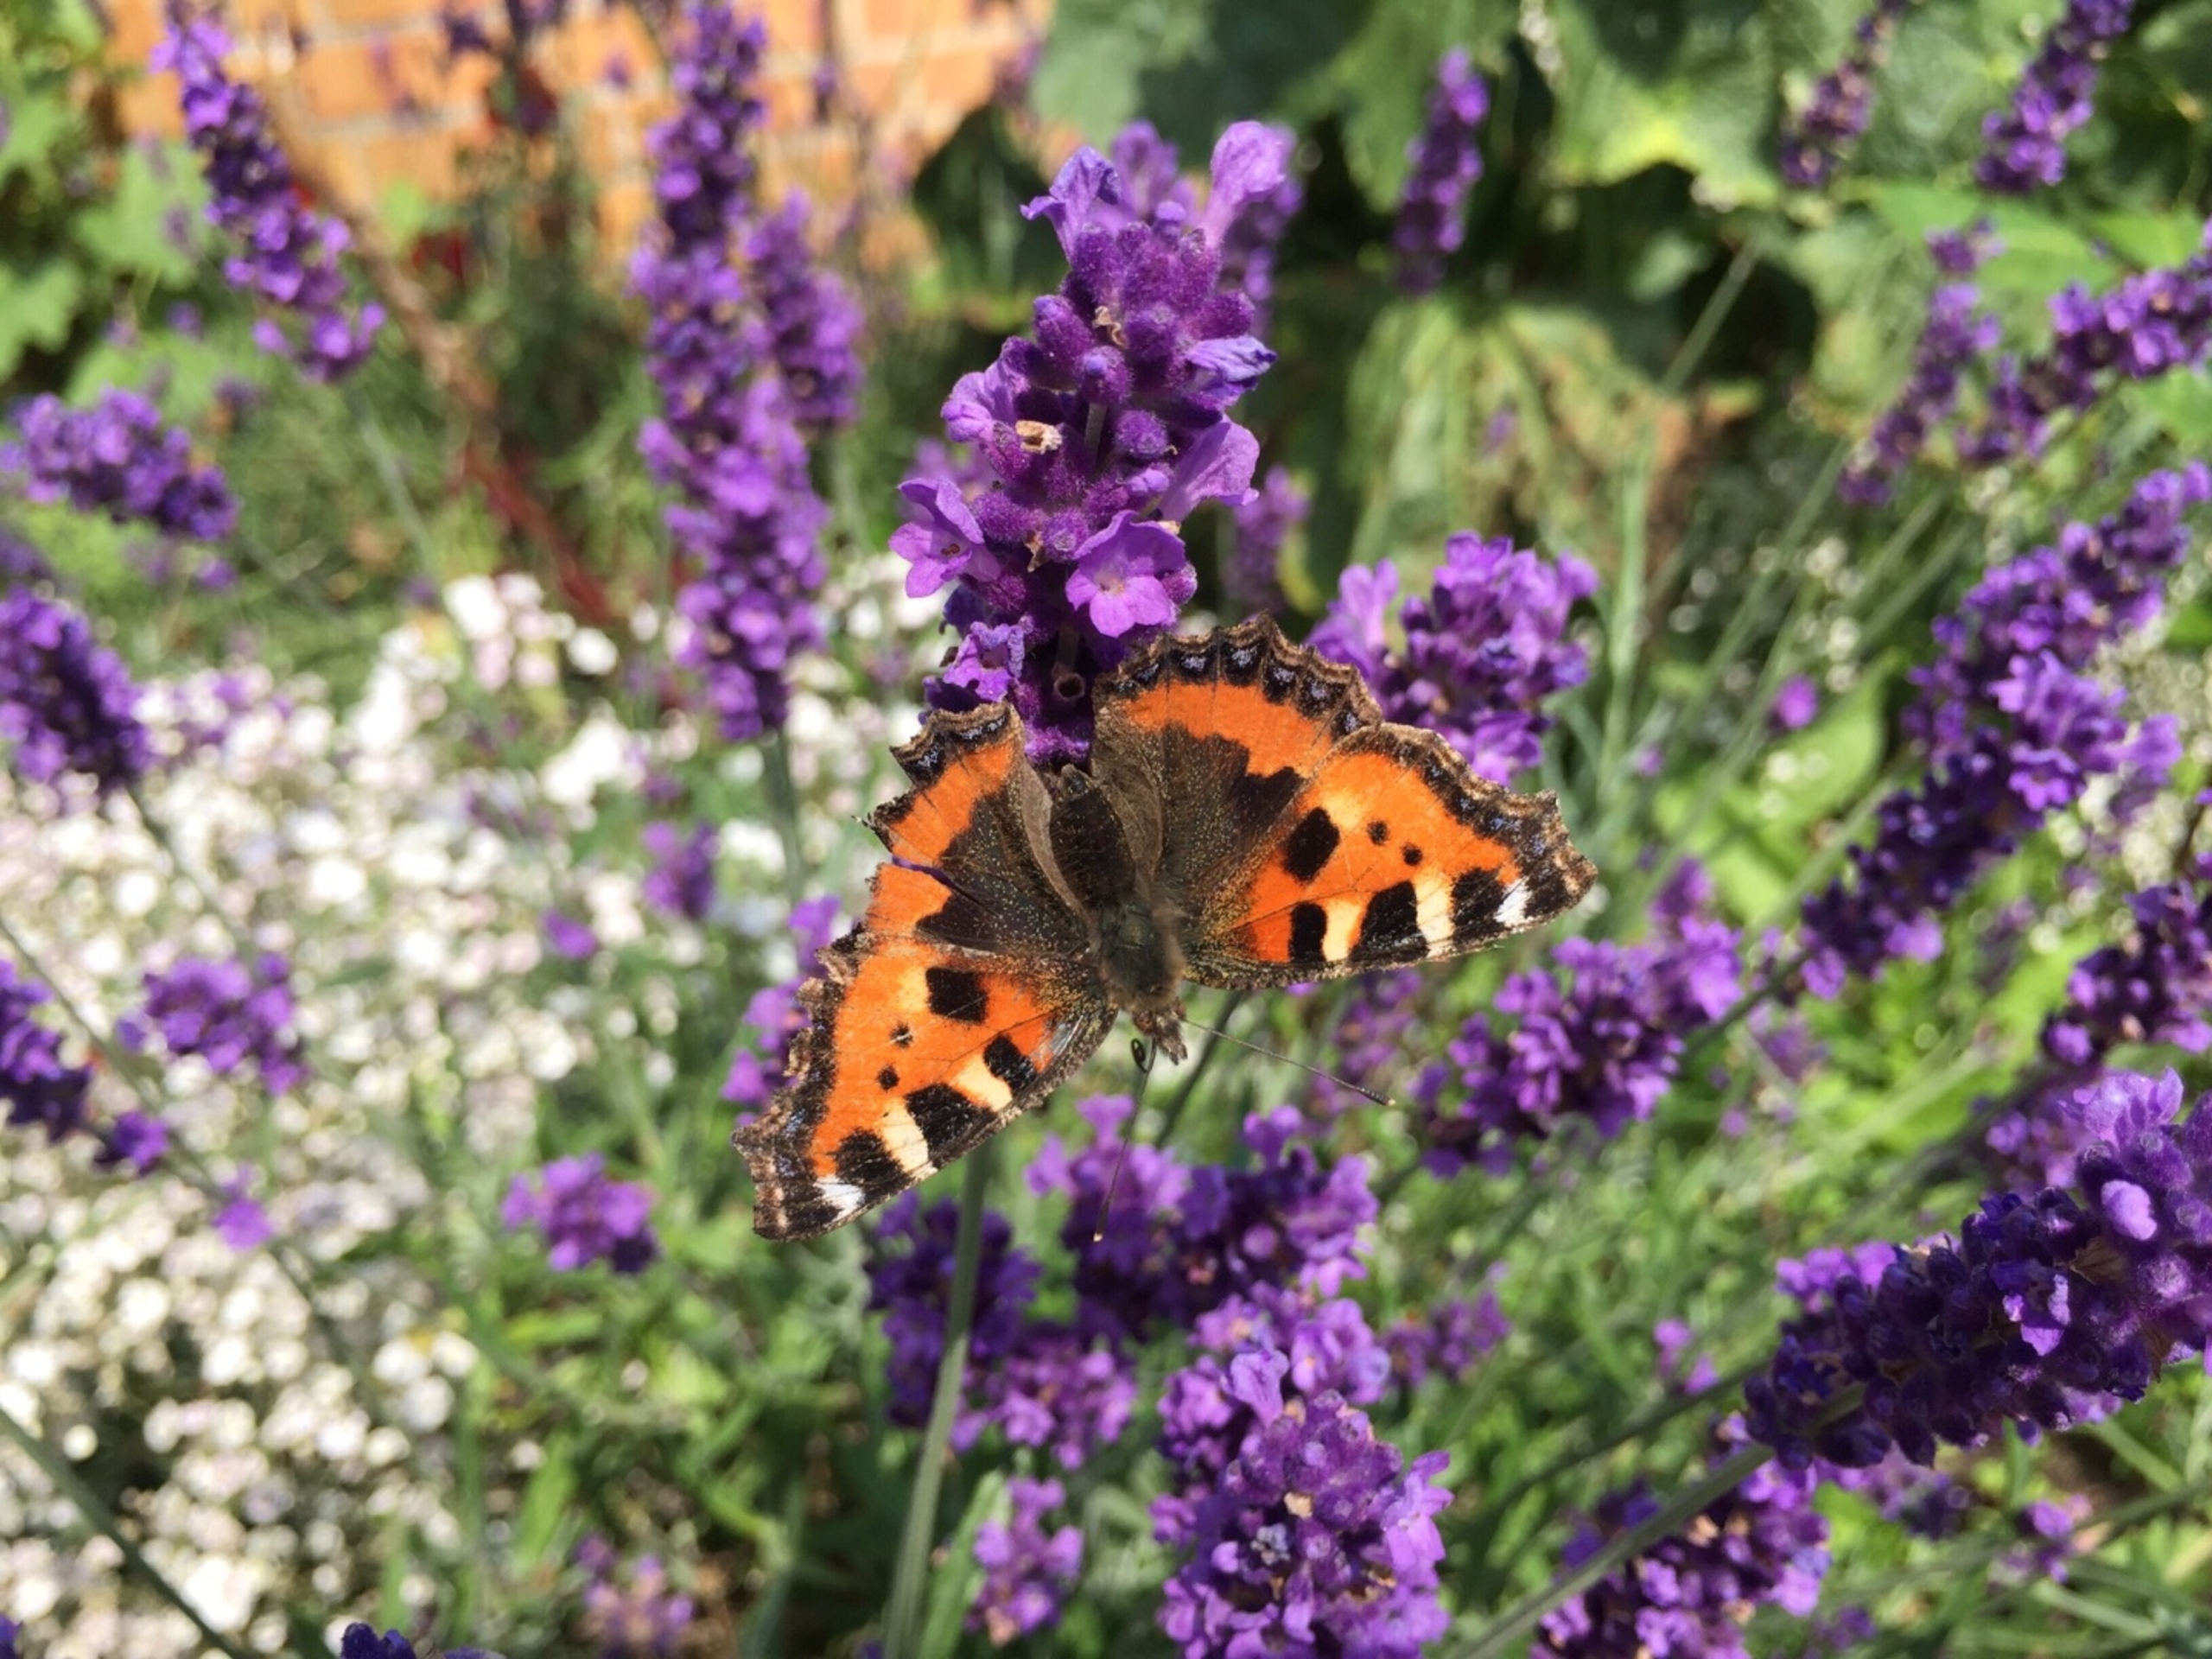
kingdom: Animalia
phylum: Arthropoda
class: Insecta
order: Lepidoptera
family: Nymphalidae
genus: Aglais
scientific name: Aglais urticae
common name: Nældens takvinge
